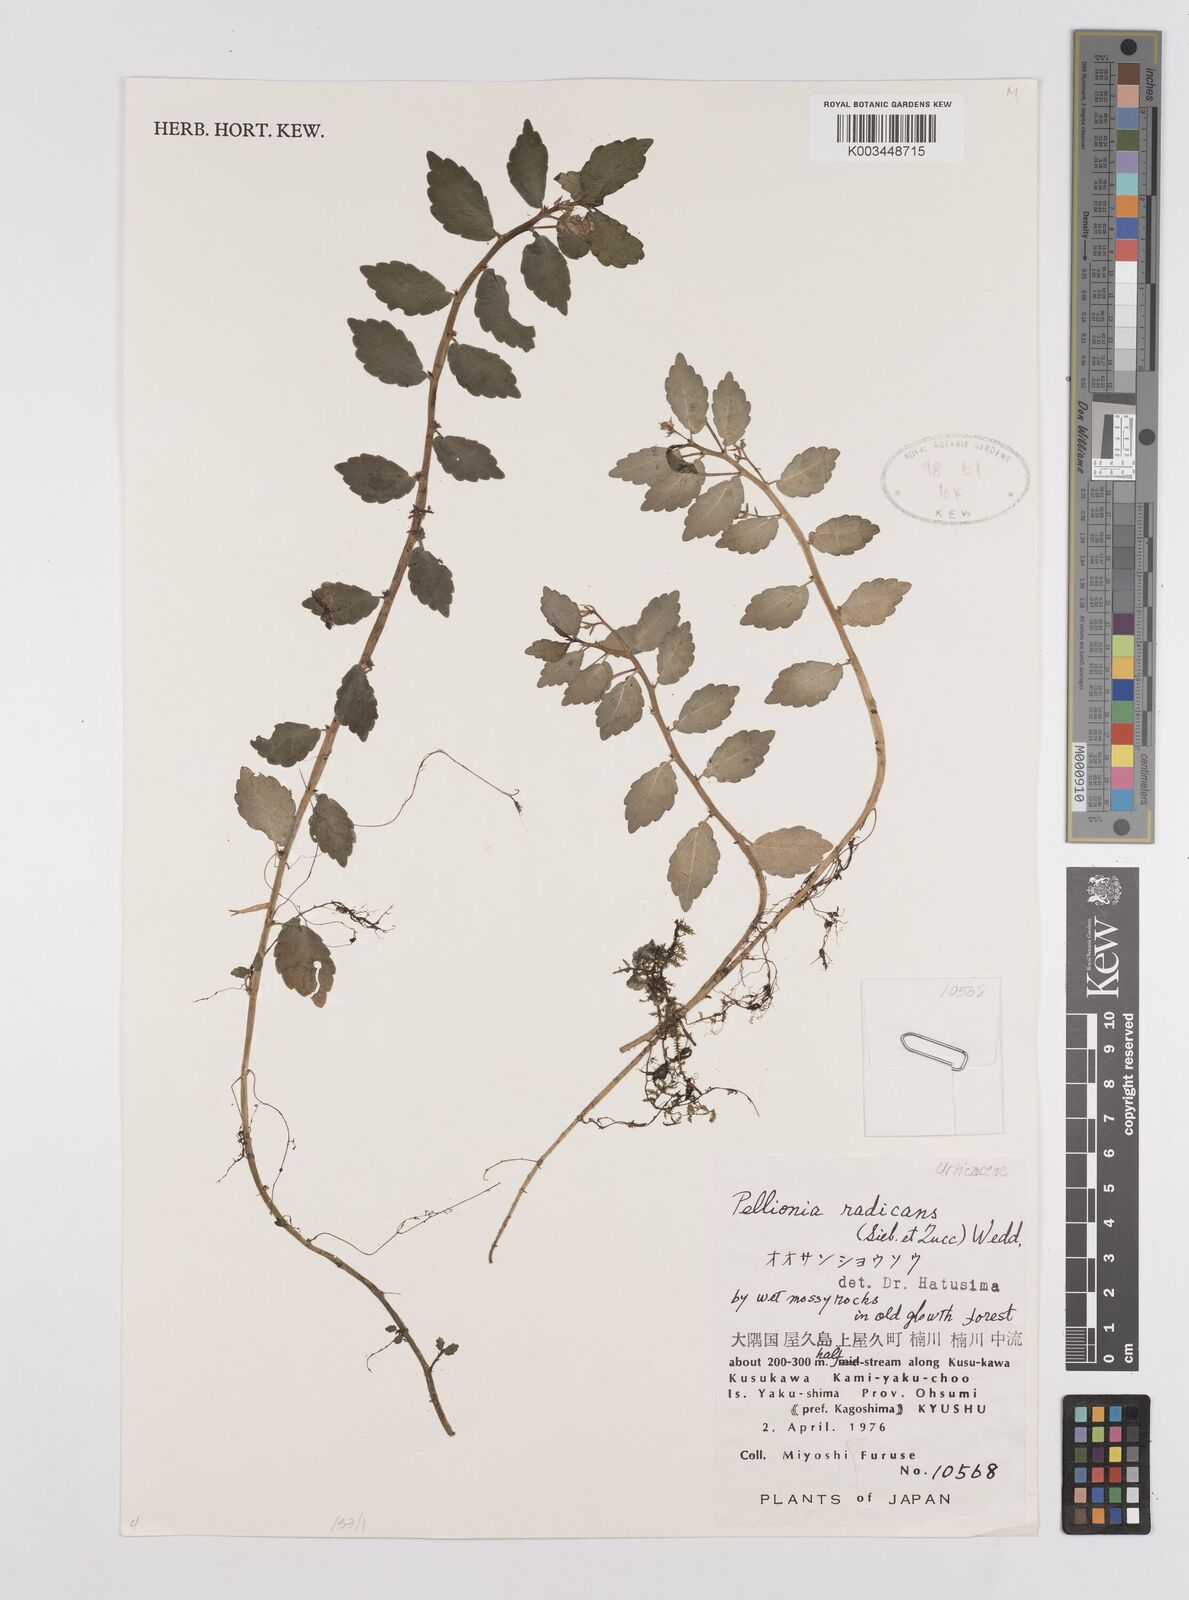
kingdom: Plantae
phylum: Tracheophyta
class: Magnoliopsida
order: Rosales
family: Urticaceae
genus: Elatostema
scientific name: Elatostema radicans
